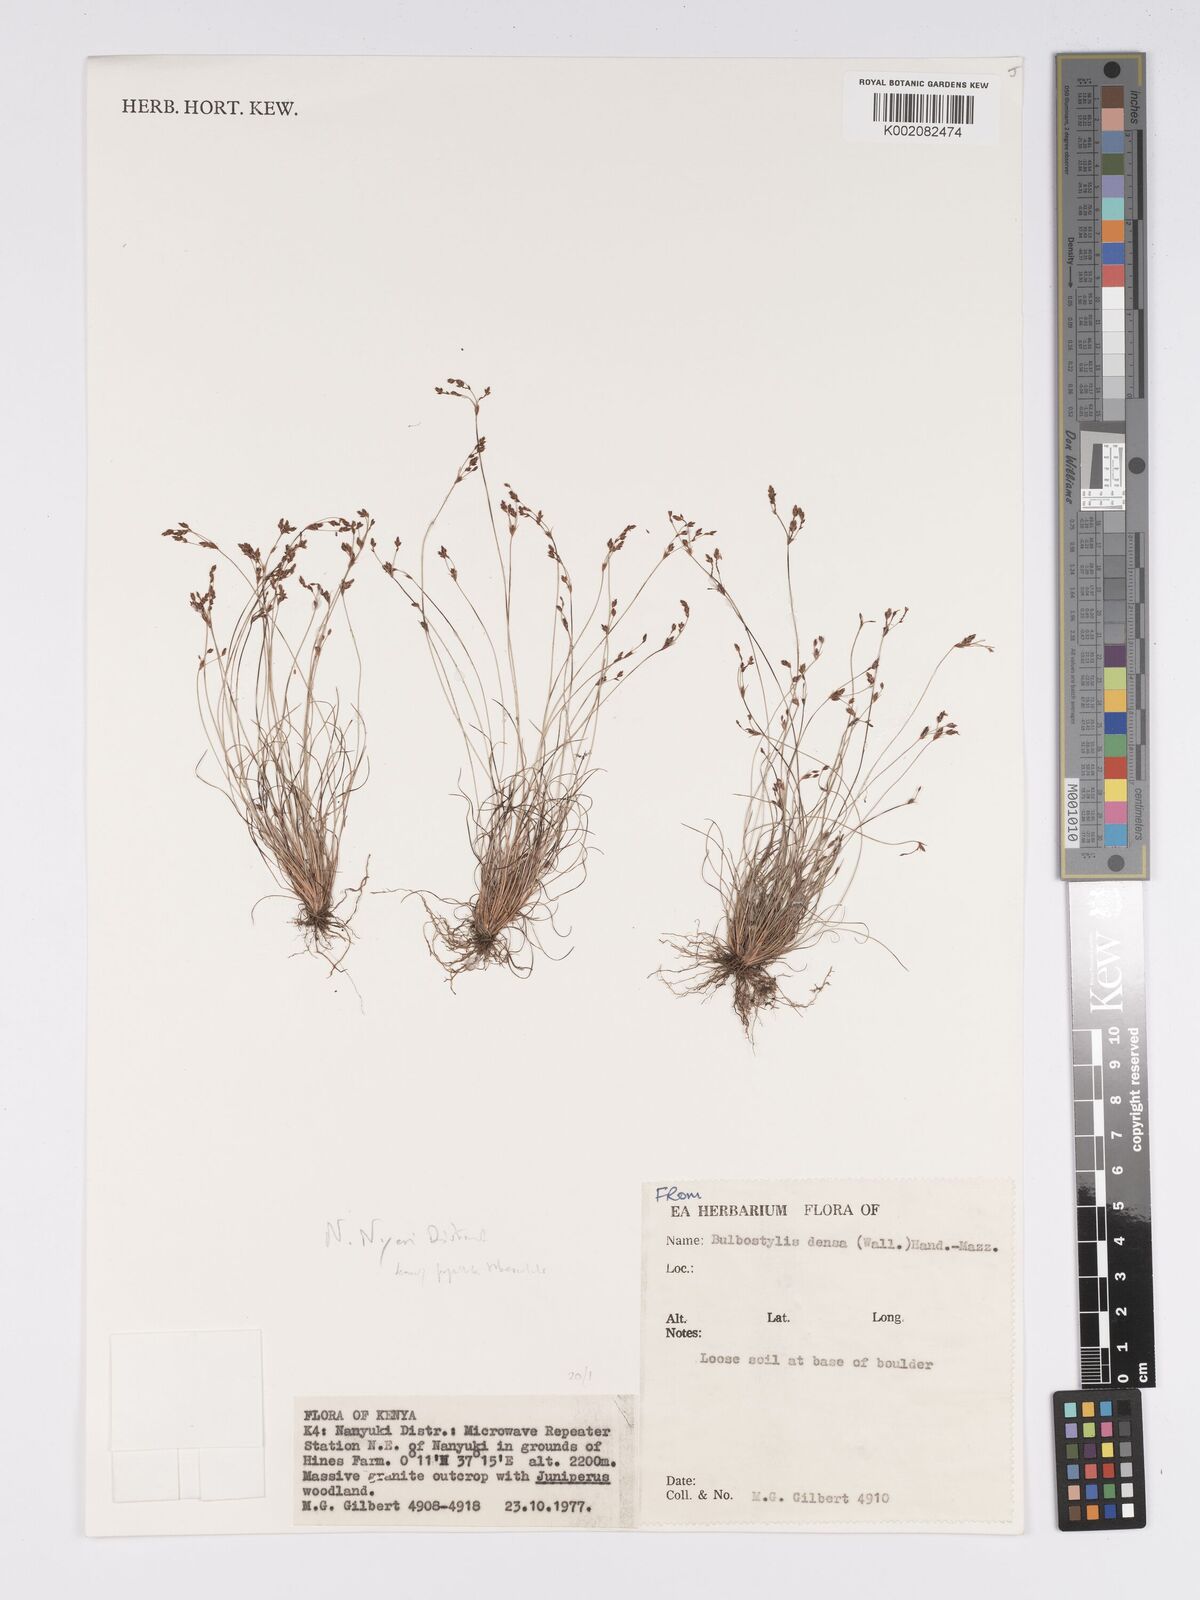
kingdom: Plantae
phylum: Tracheophyta
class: Liliopsida
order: Poales
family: Cyperaceae
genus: Bulbostylis
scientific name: Bulbostylis densa
